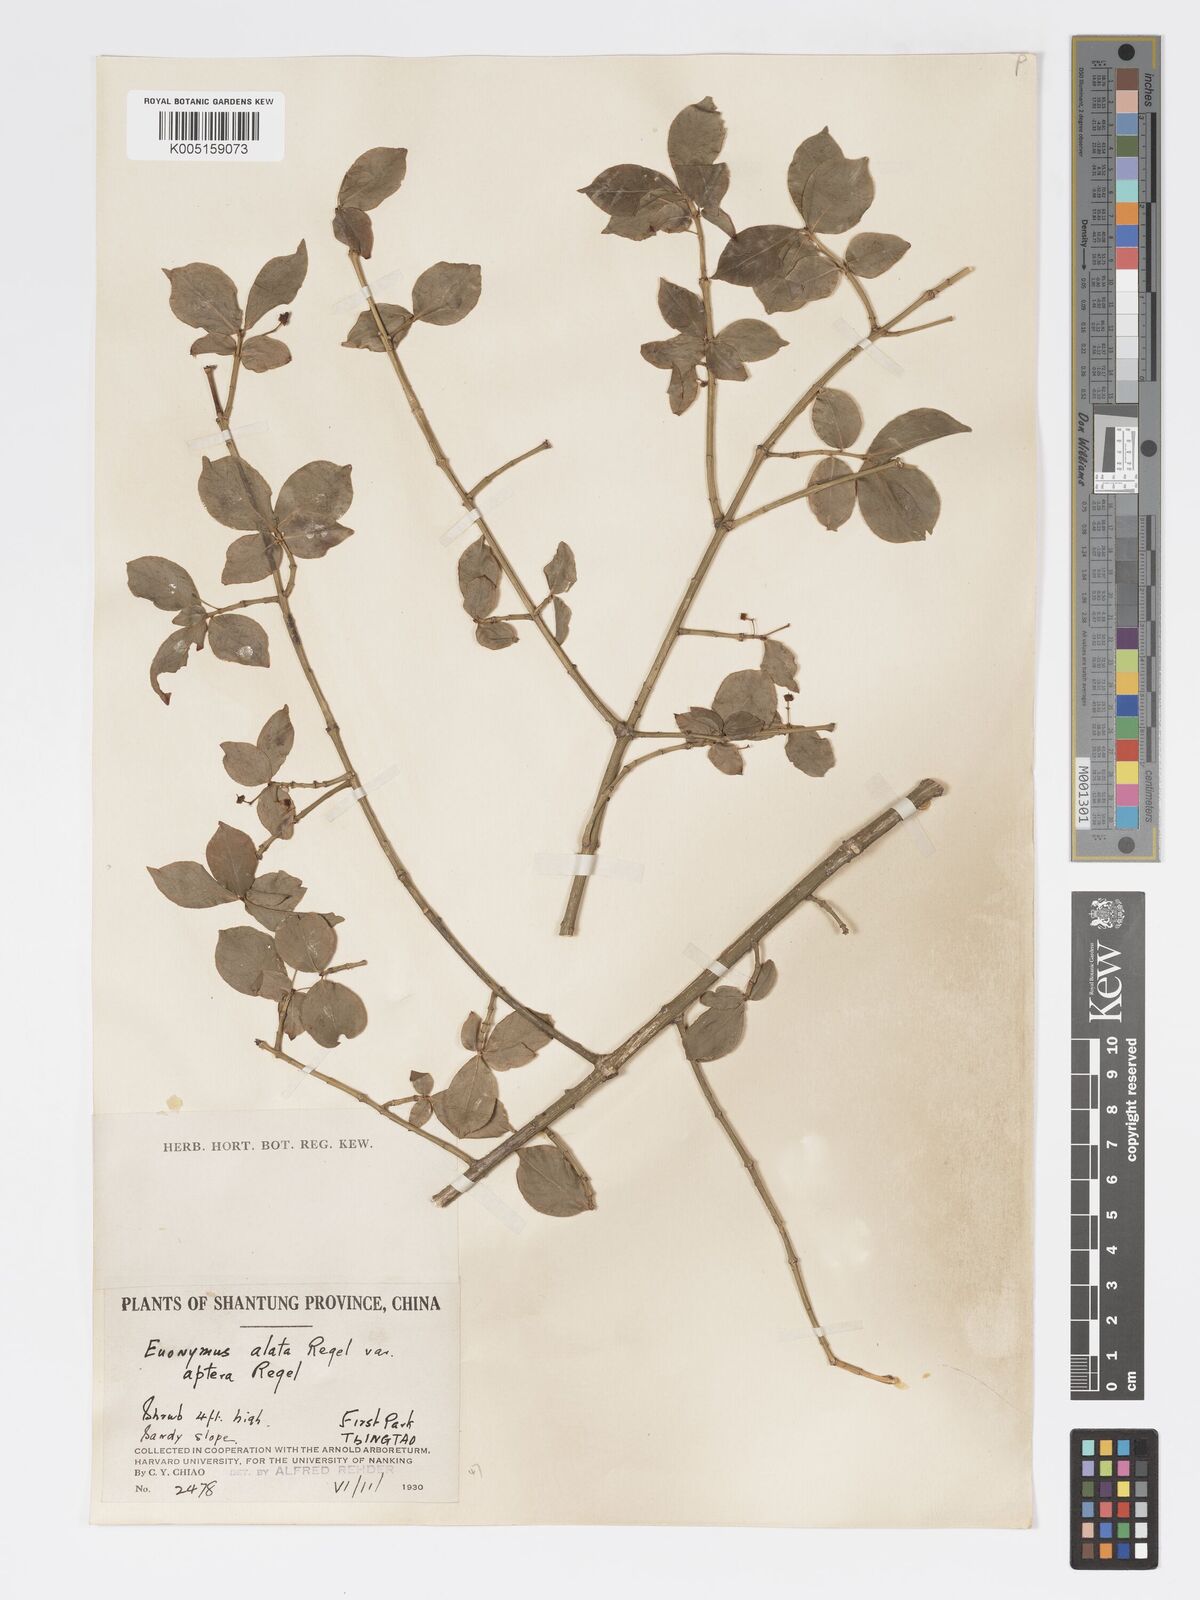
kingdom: Plantae
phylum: Tracheophyta
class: Magnoliopsida
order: Celastrales
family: Celastraceae
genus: Euonymus
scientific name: Euonymus
